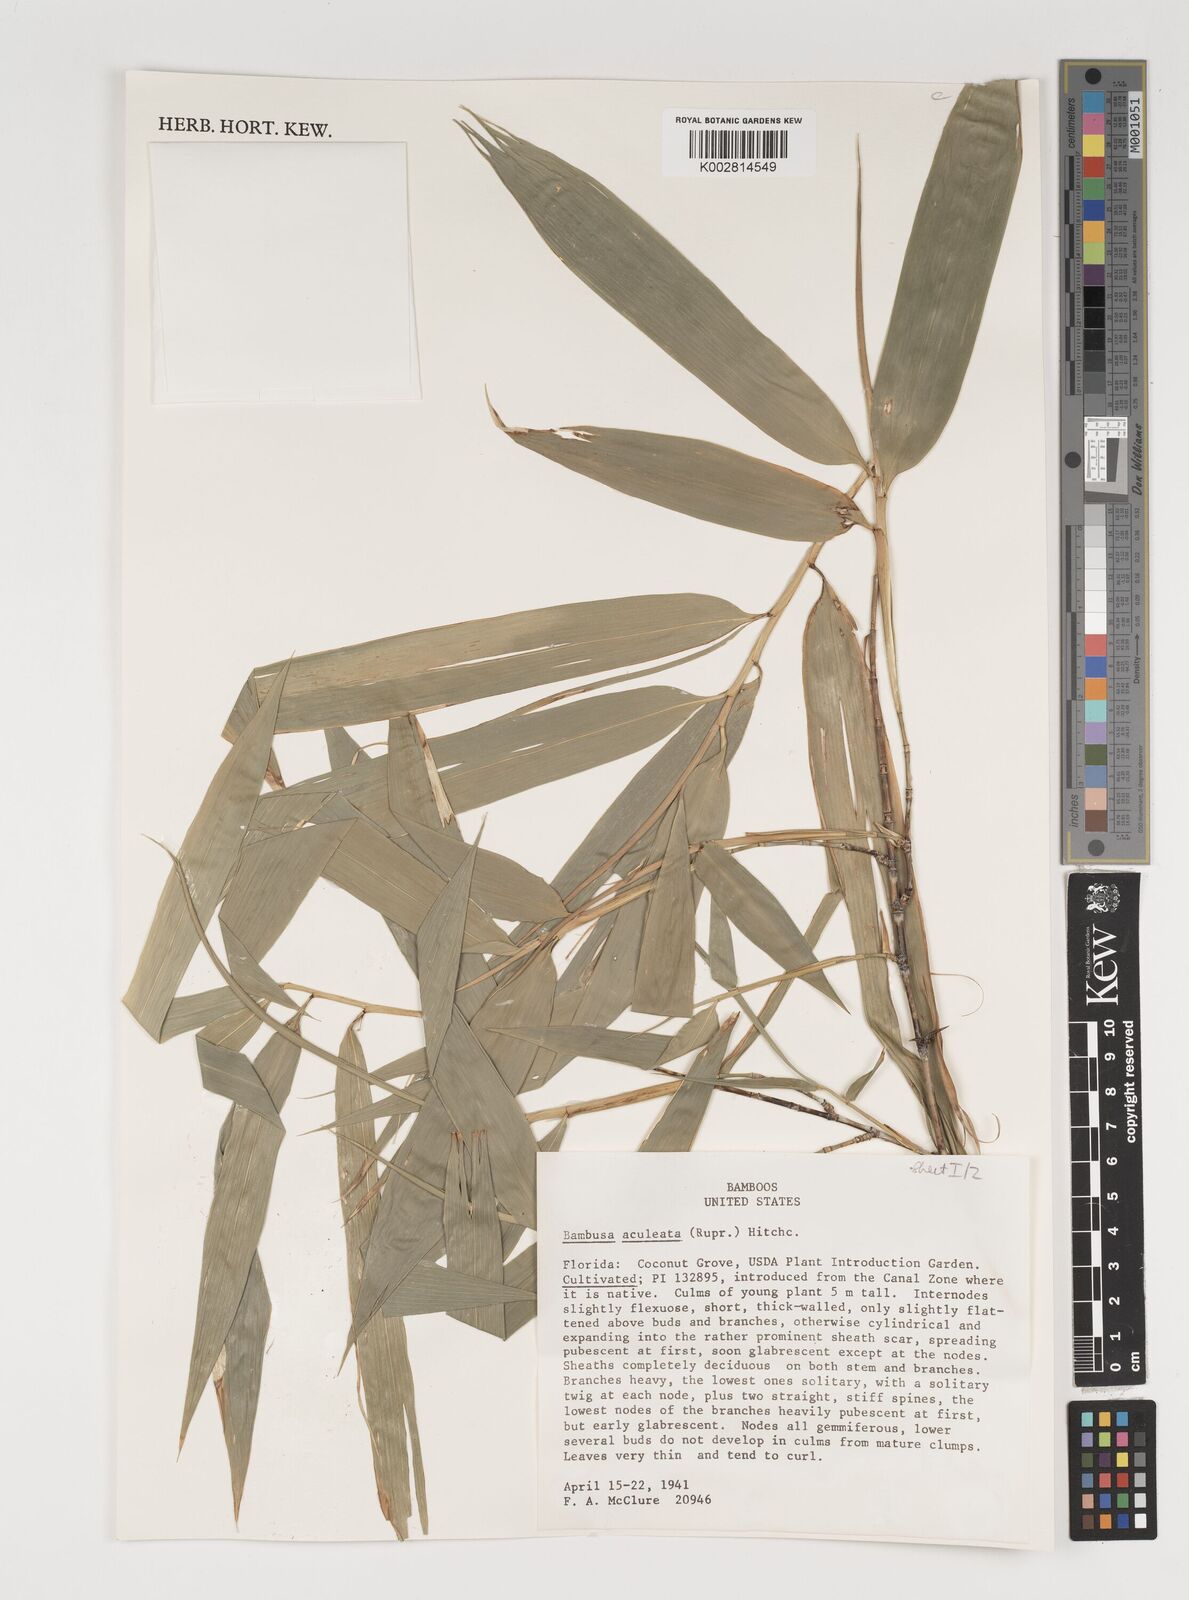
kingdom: Plantae
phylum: Tracheophyta
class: Liliopsida
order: Poales
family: Poaceae
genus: Guadua
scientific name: Guadua angustifolia
